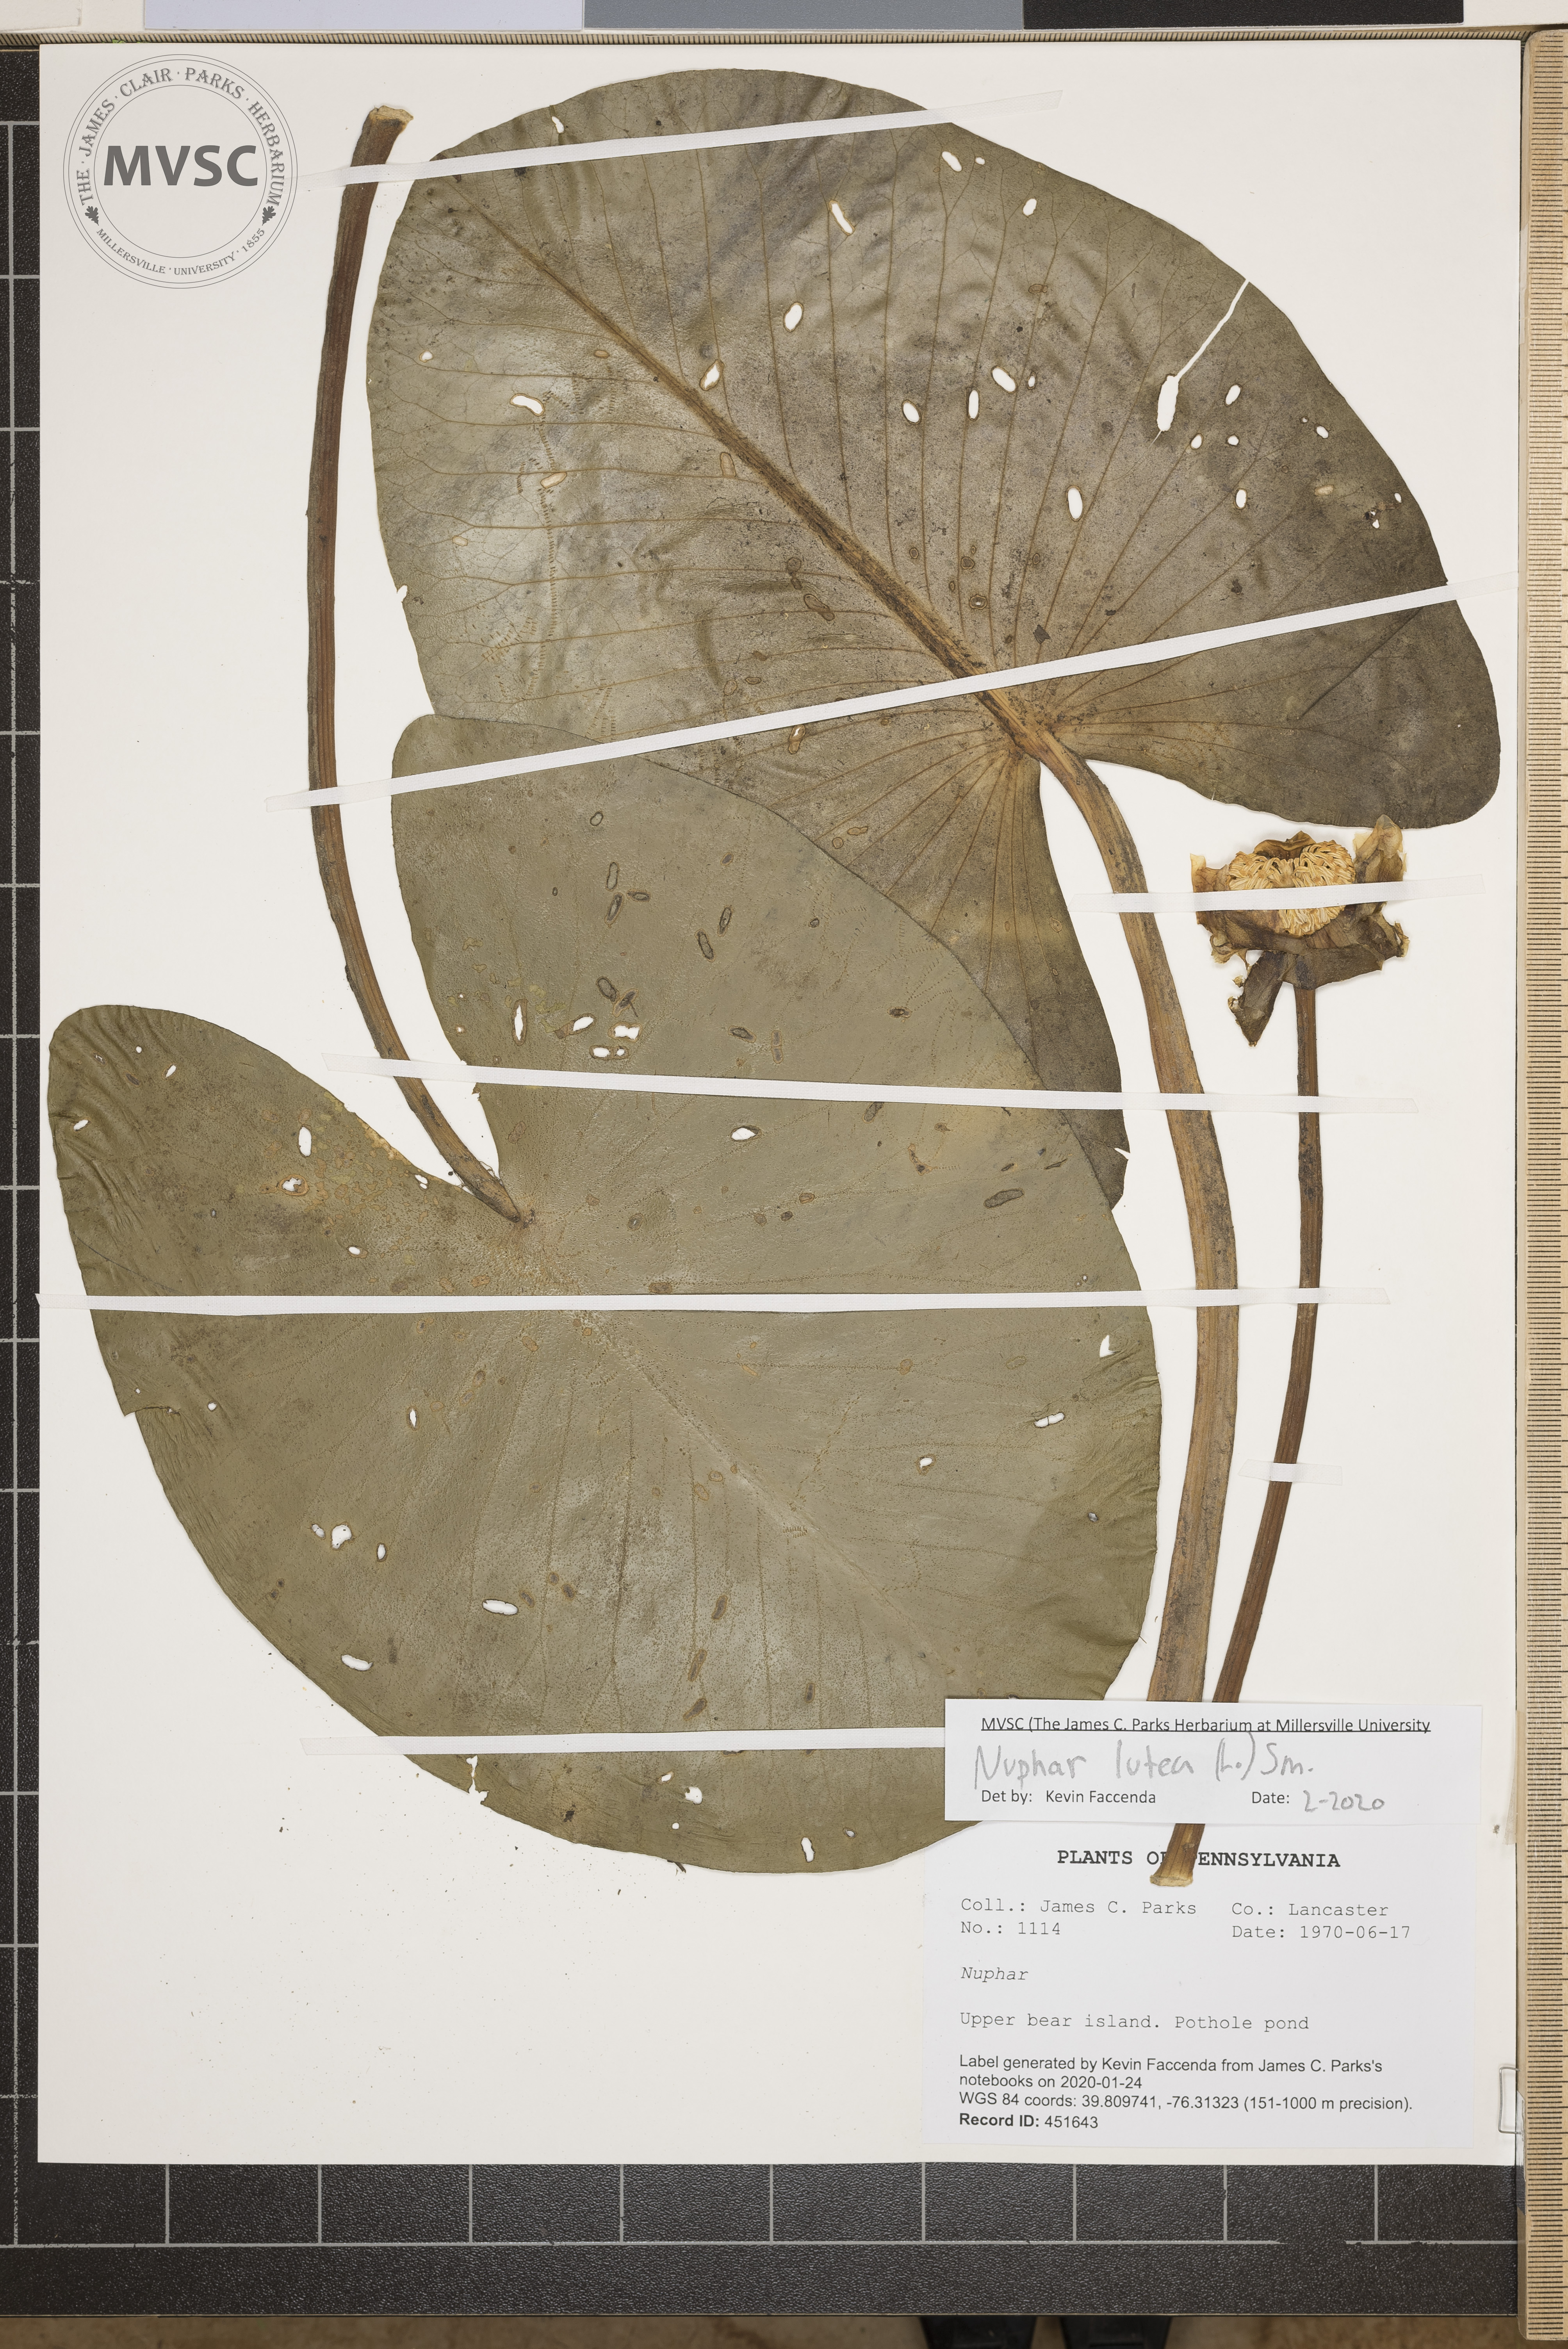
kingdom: Plantae
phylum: Tracheophyta
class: Magnoliopsida
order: Nymphaeales
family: Nymphaeaceae
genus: Nuphar
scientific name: Nuphar lutea
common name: Yellow water-lily
